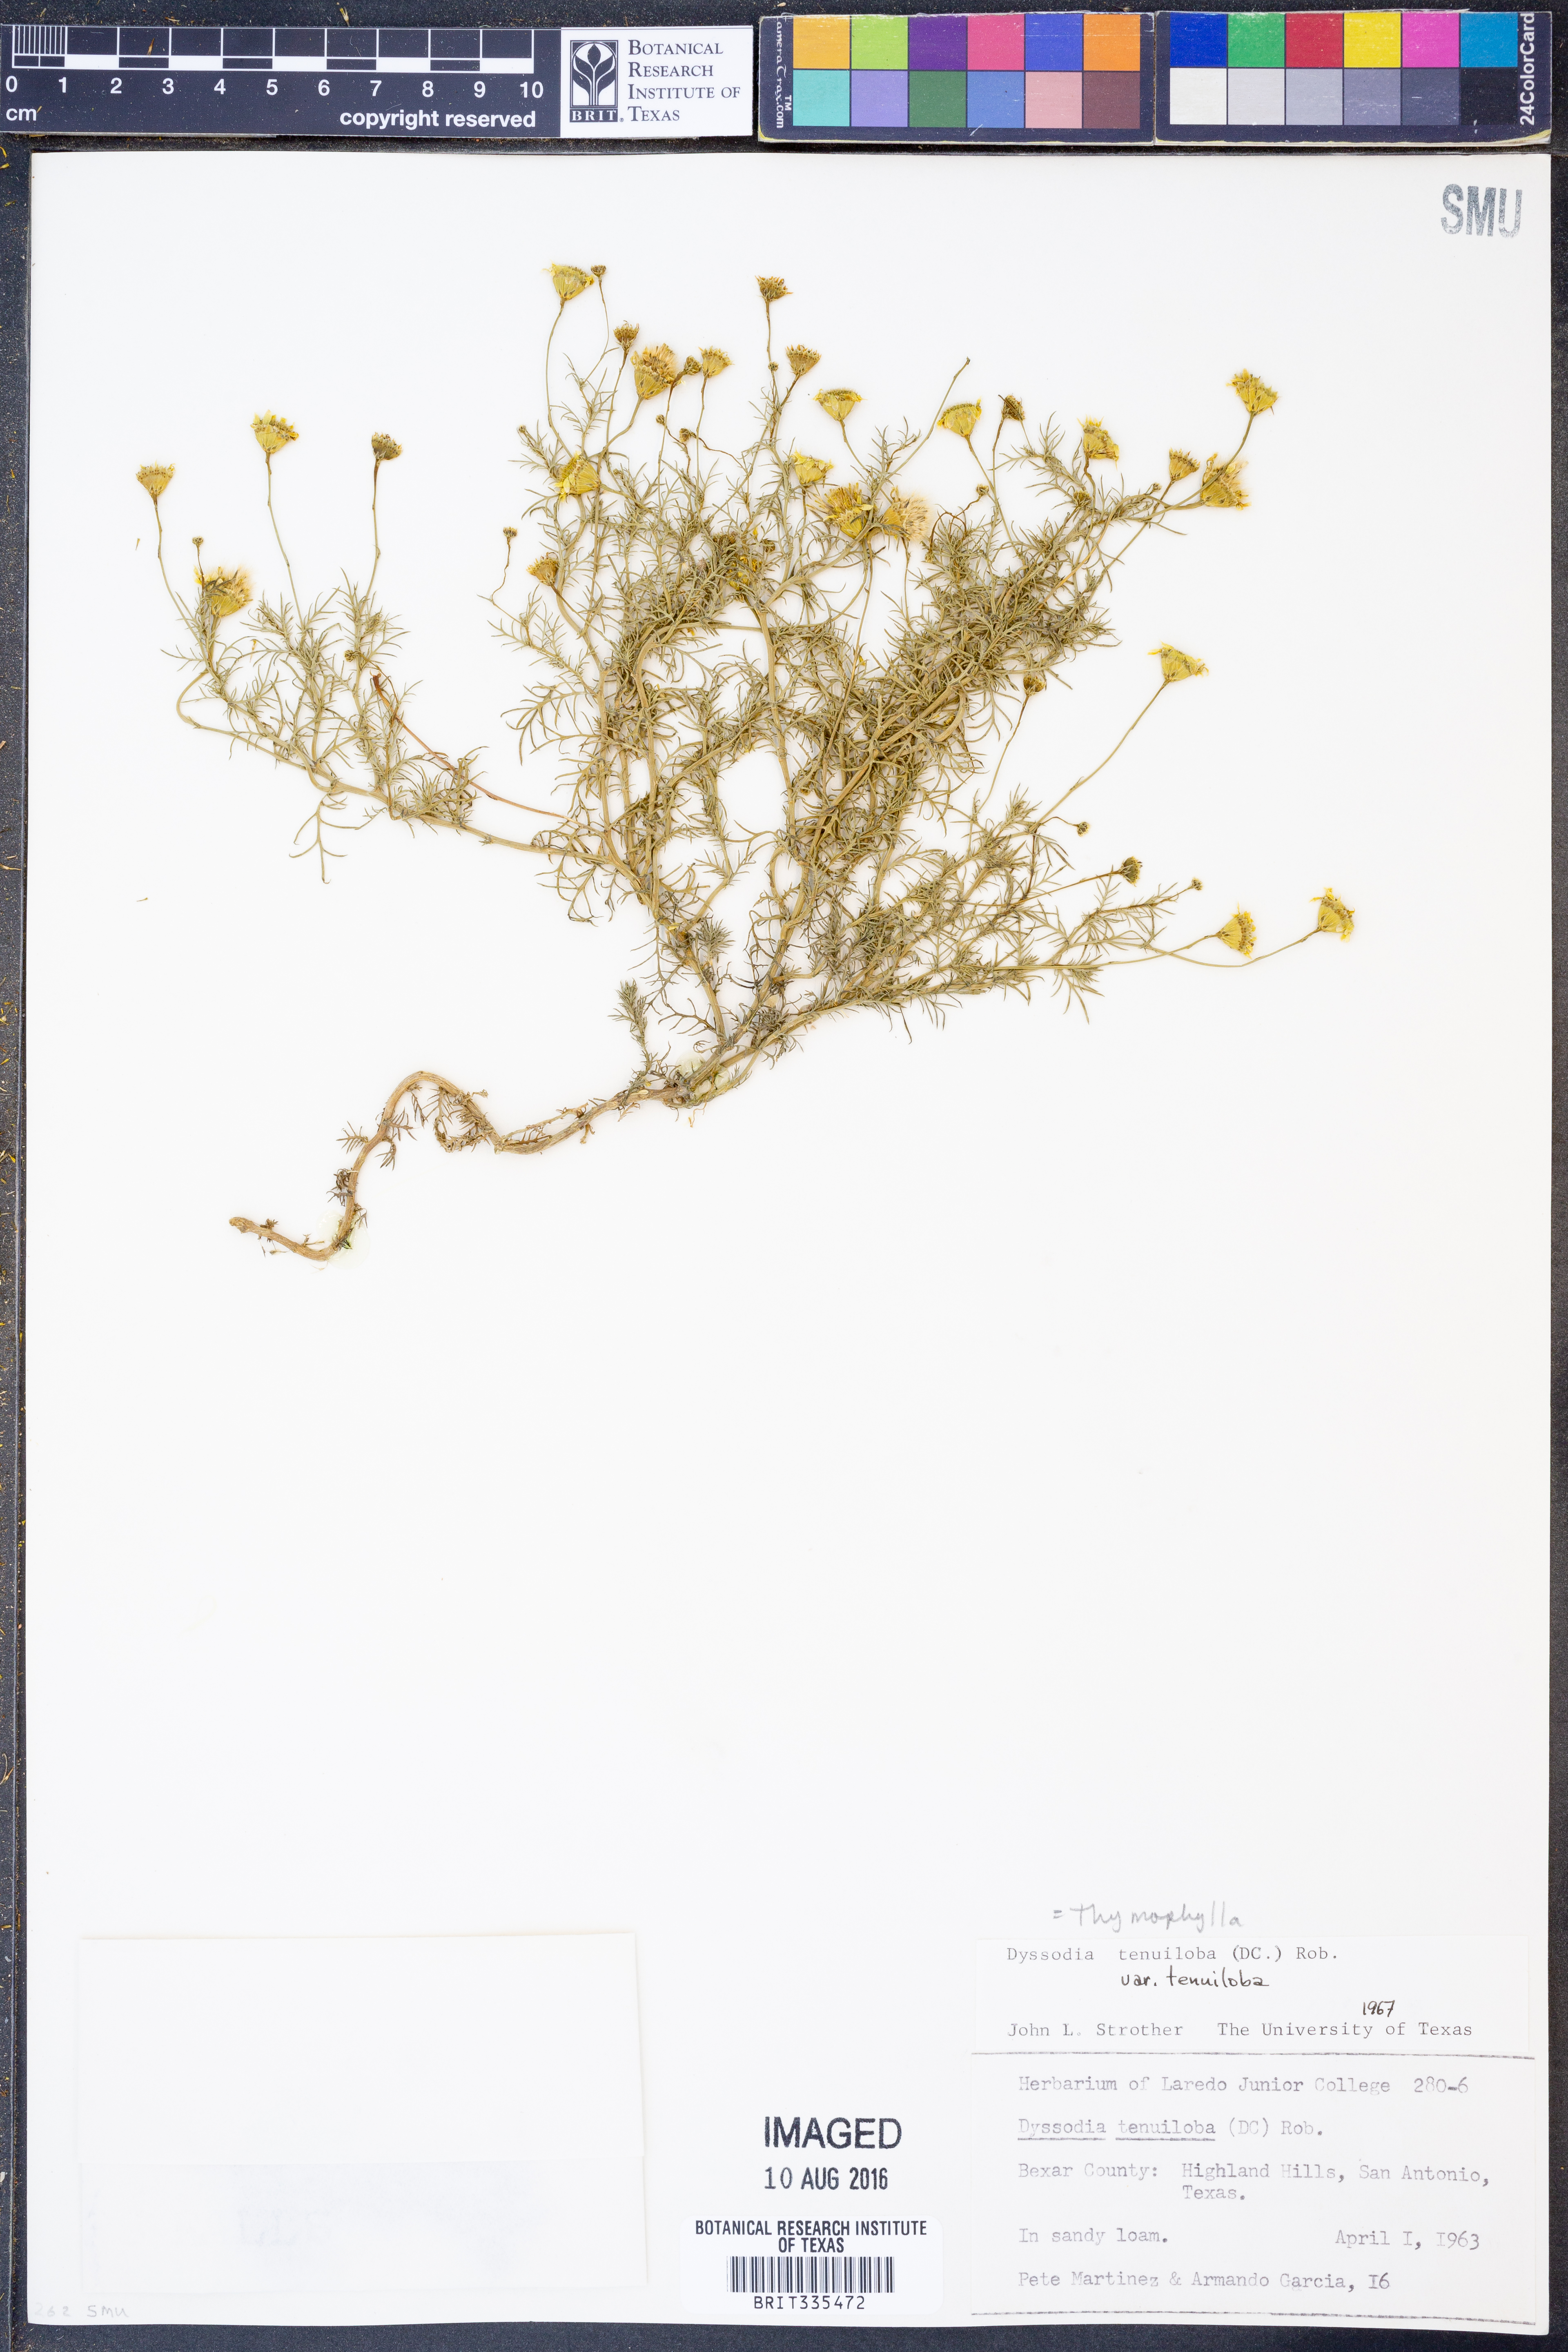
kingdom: Plantae
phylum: Tracheophyta
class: Magnoliopsida
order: Asterales
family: Asteraceae
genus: Thymophylla
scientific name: Thymophylla tenuiloba
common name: Dahlberg's daisy
